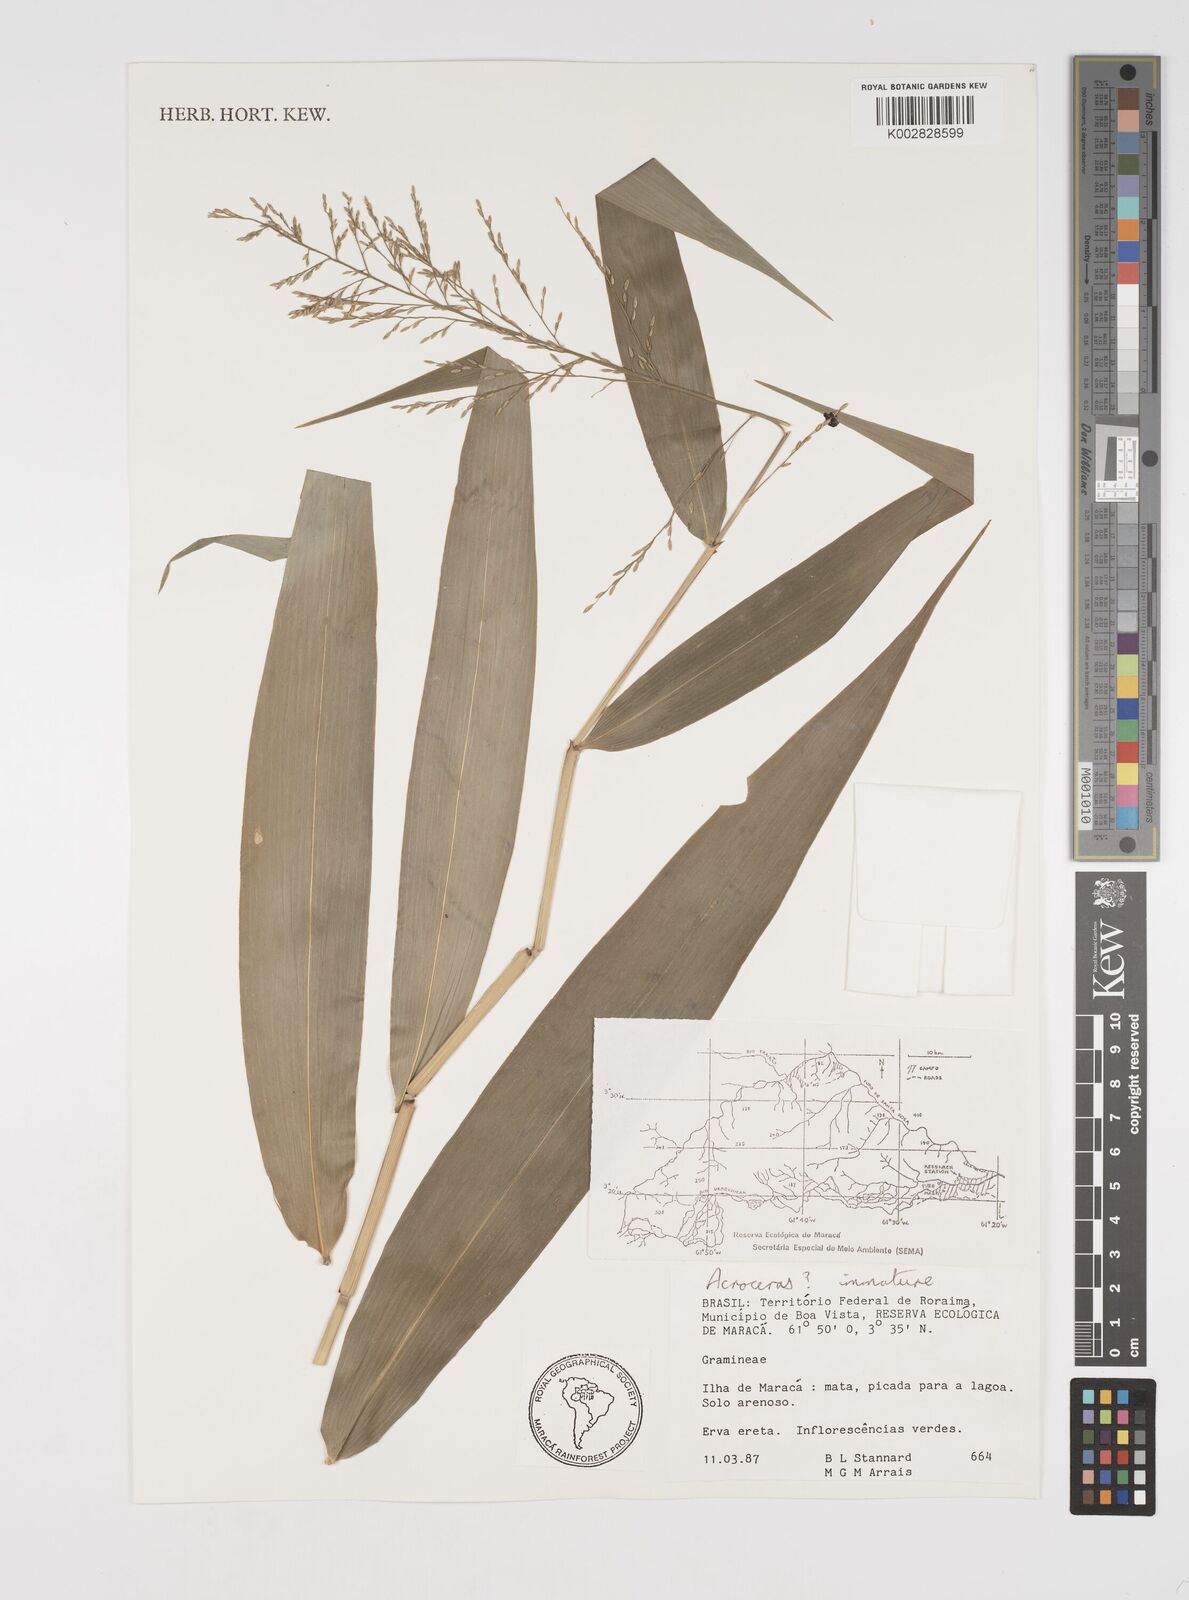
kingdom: Plantae
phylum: Tracheophyta
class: Liliopsida
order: Poales
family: Poaceae
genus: Acroceras
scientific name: Acroceras
